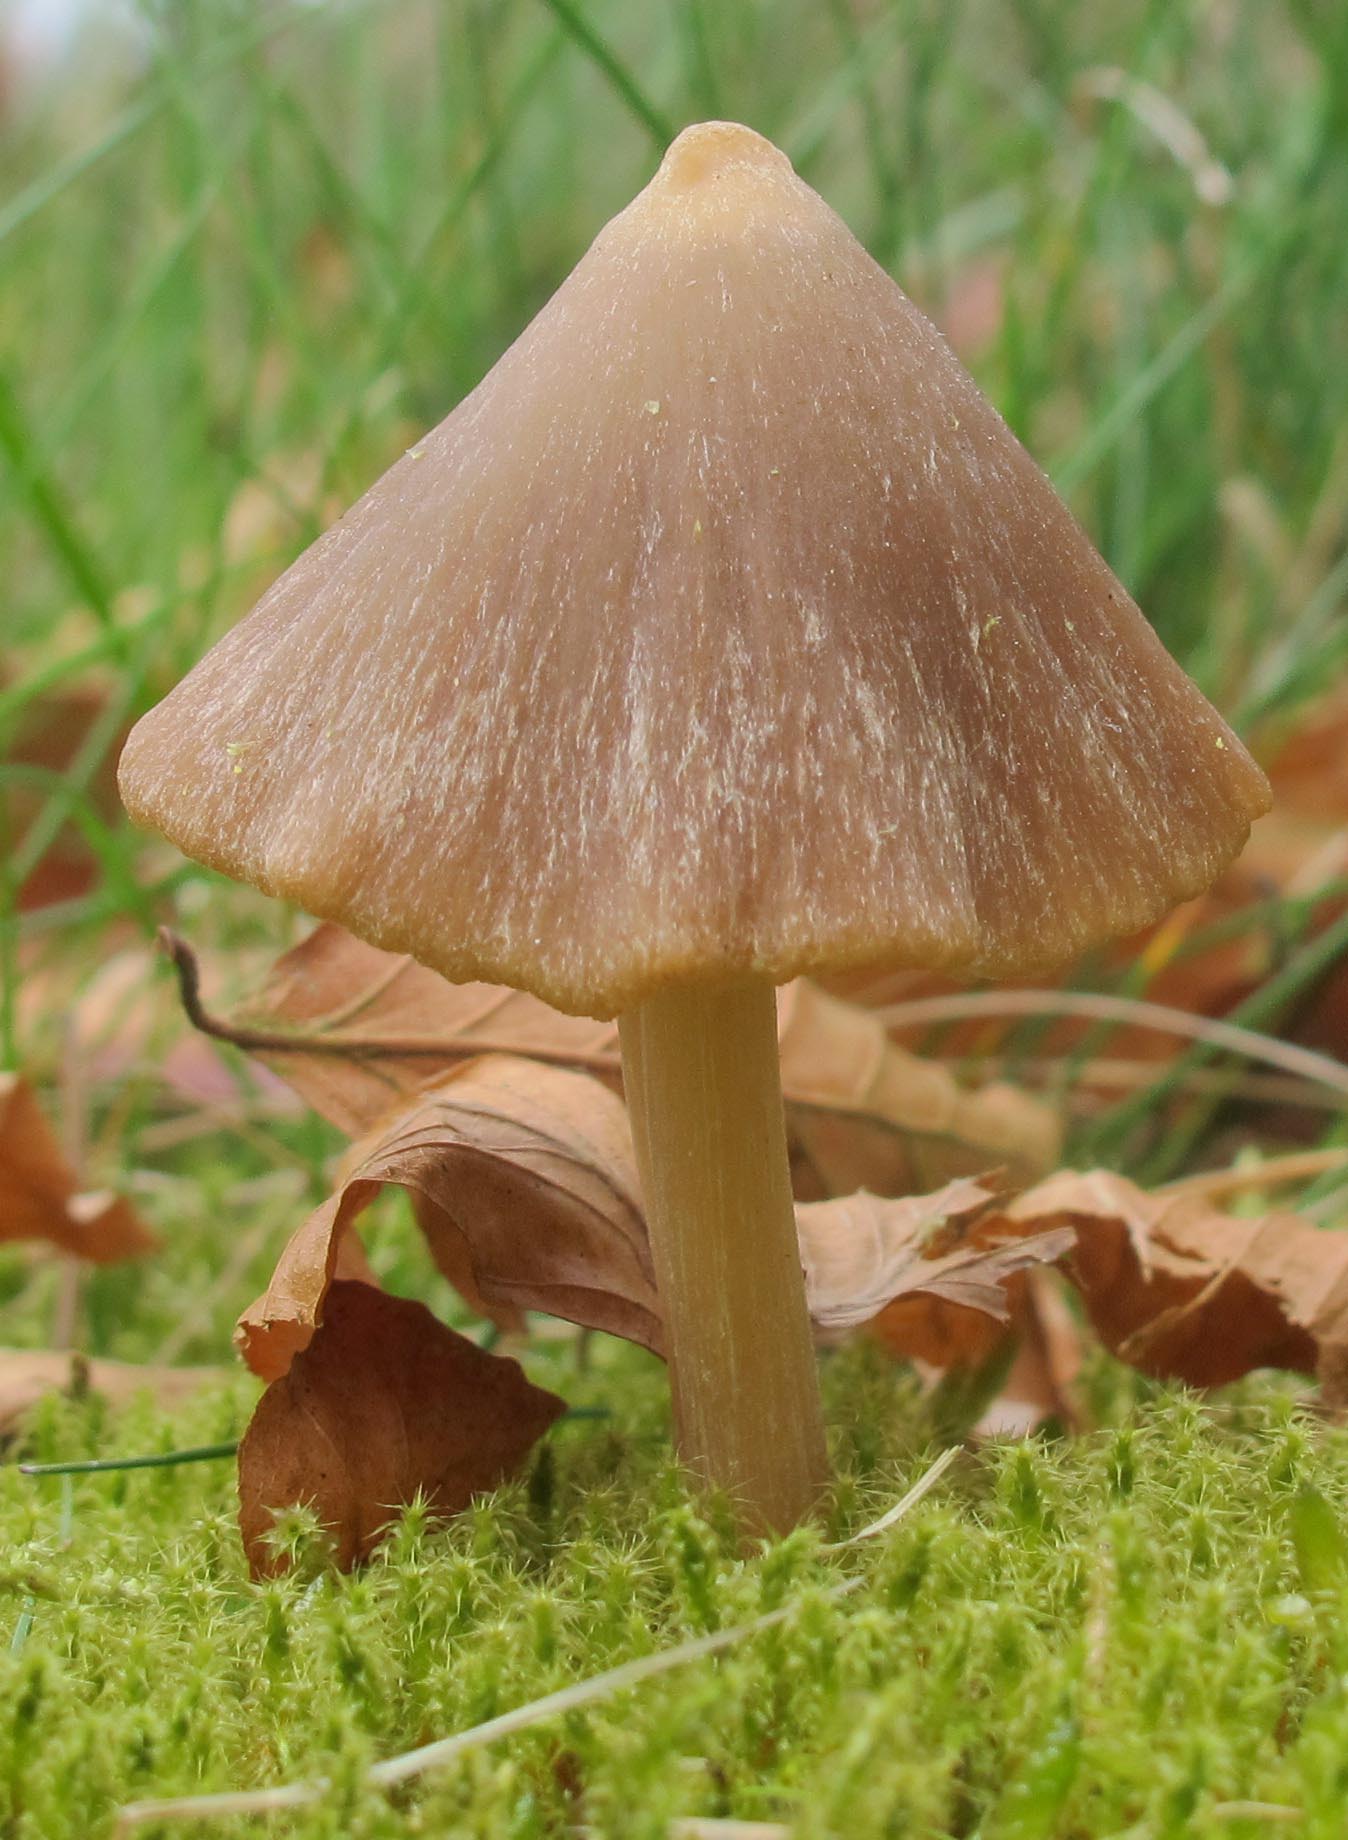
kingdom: Fungi
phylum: Basidiomycota
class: Agaricomycetes
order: Agaricales
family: Entolomataceae
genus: Entoloma
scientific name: Entoloma cuneatum
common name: dunstokket rødblad
